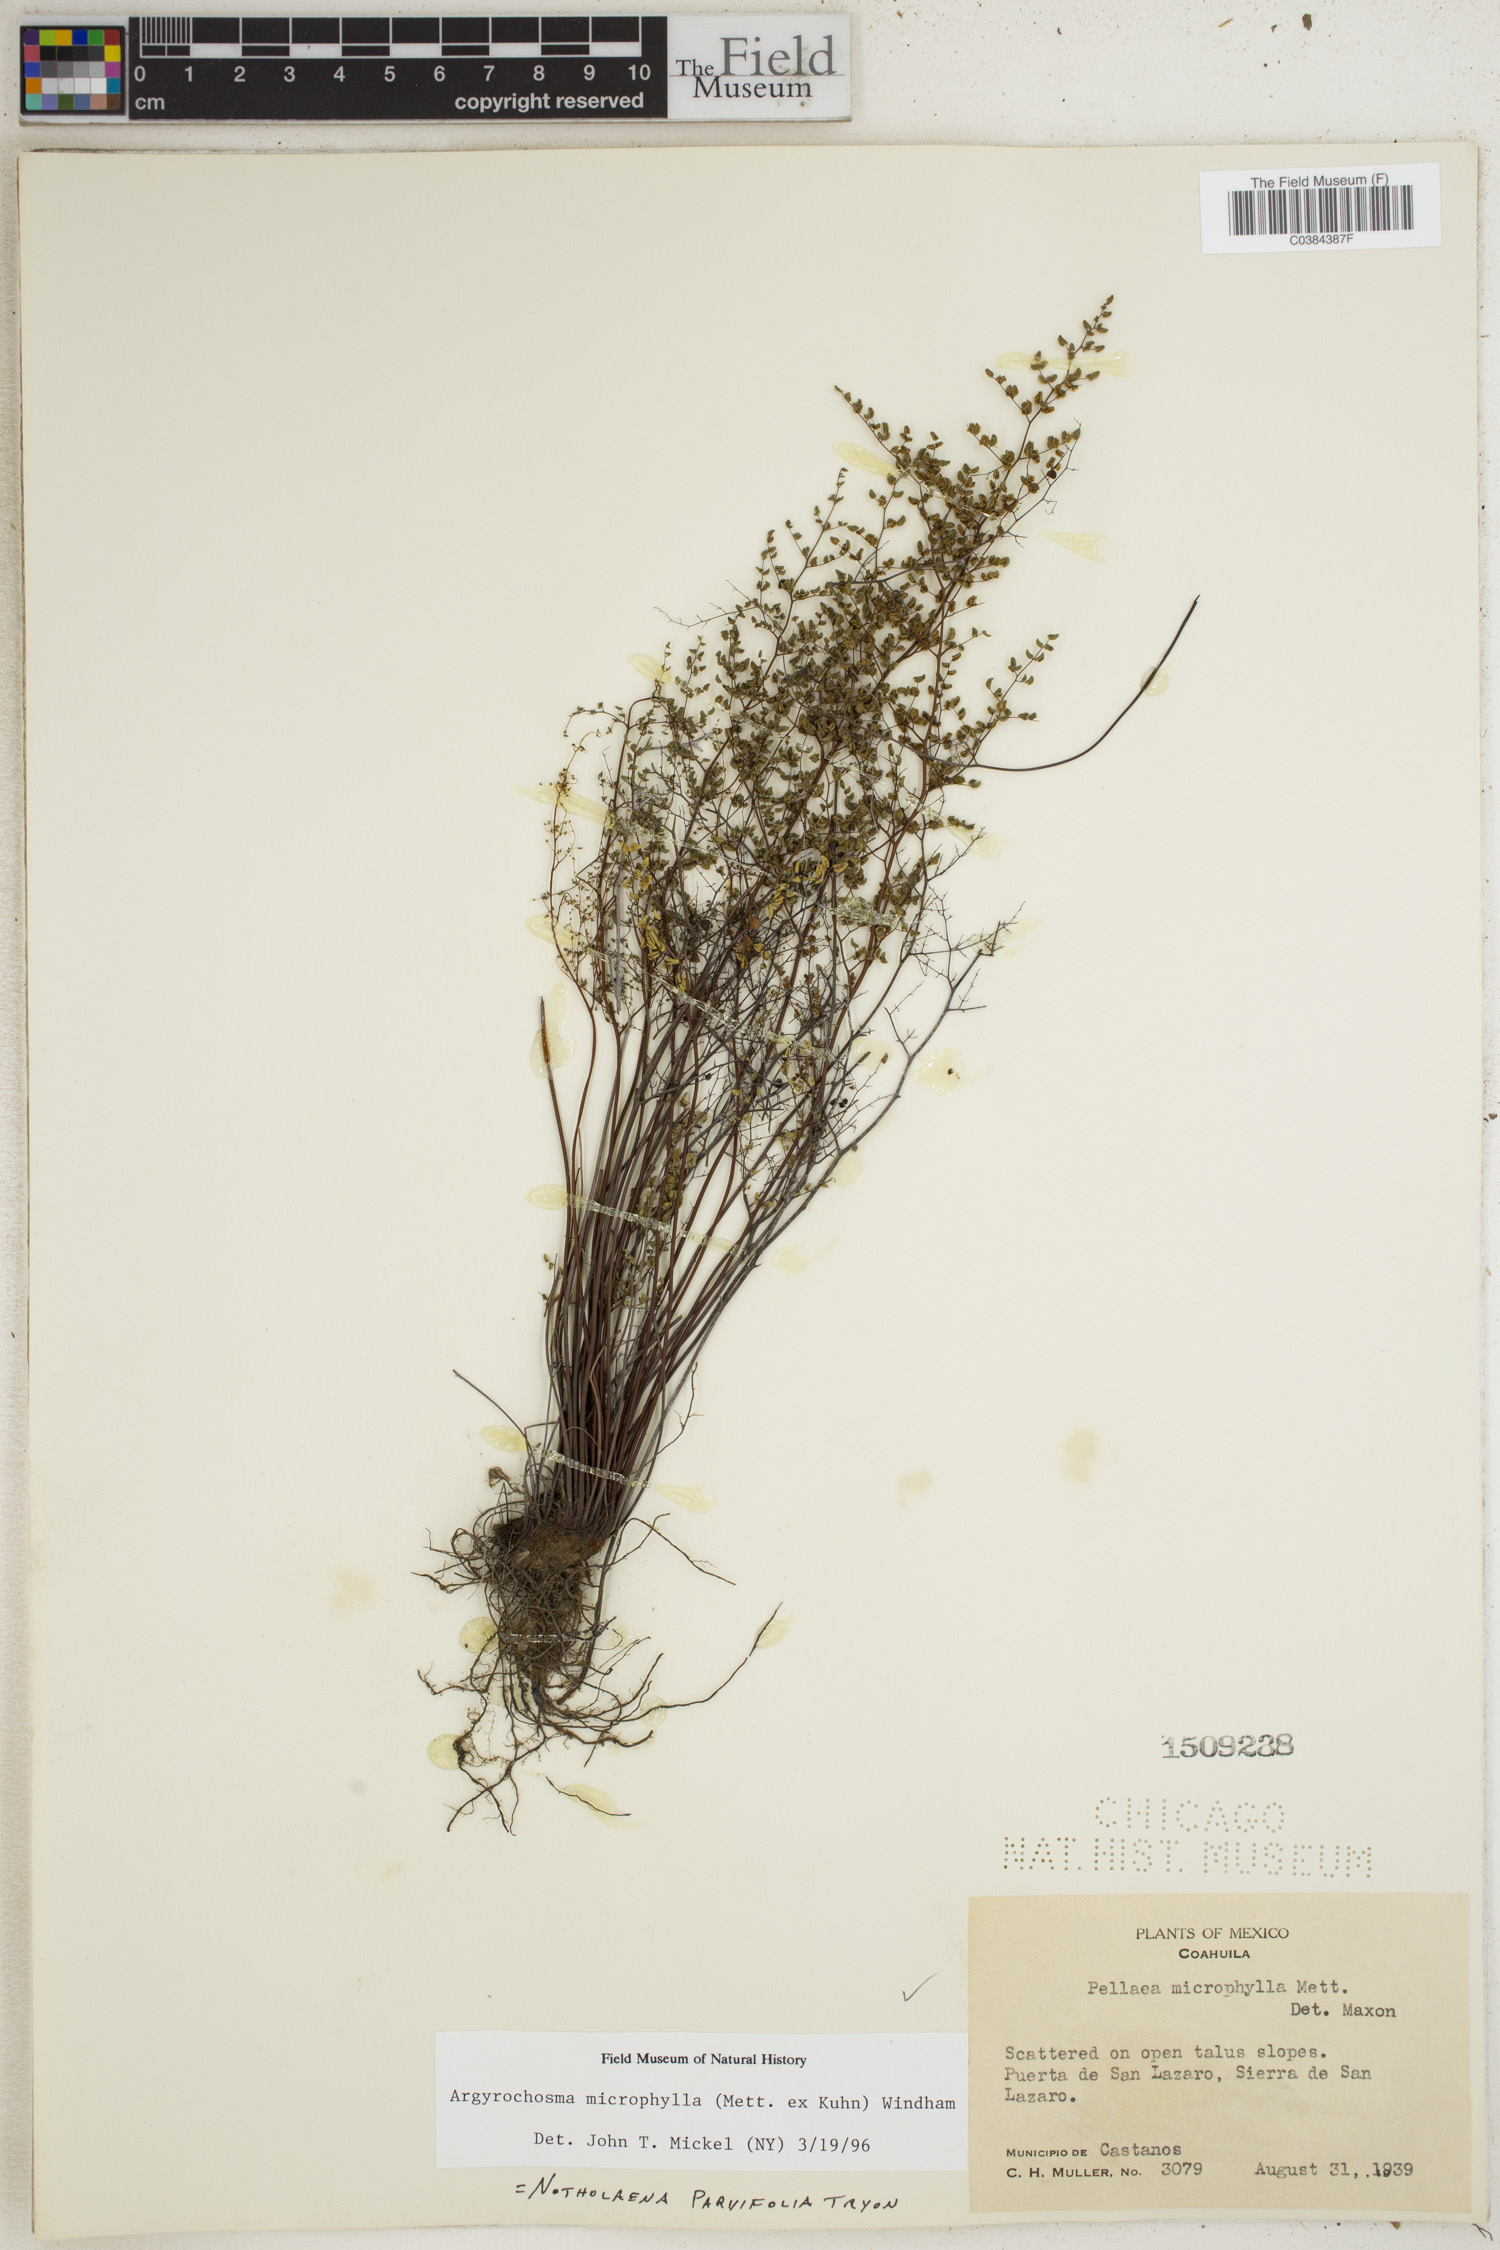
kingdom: Plantae
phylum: Tracheophyta
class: Polypodiopsida
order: Polypodiales
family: Pteridaceae
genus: Argyrochosma
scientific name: Argyrochosma microphylla
